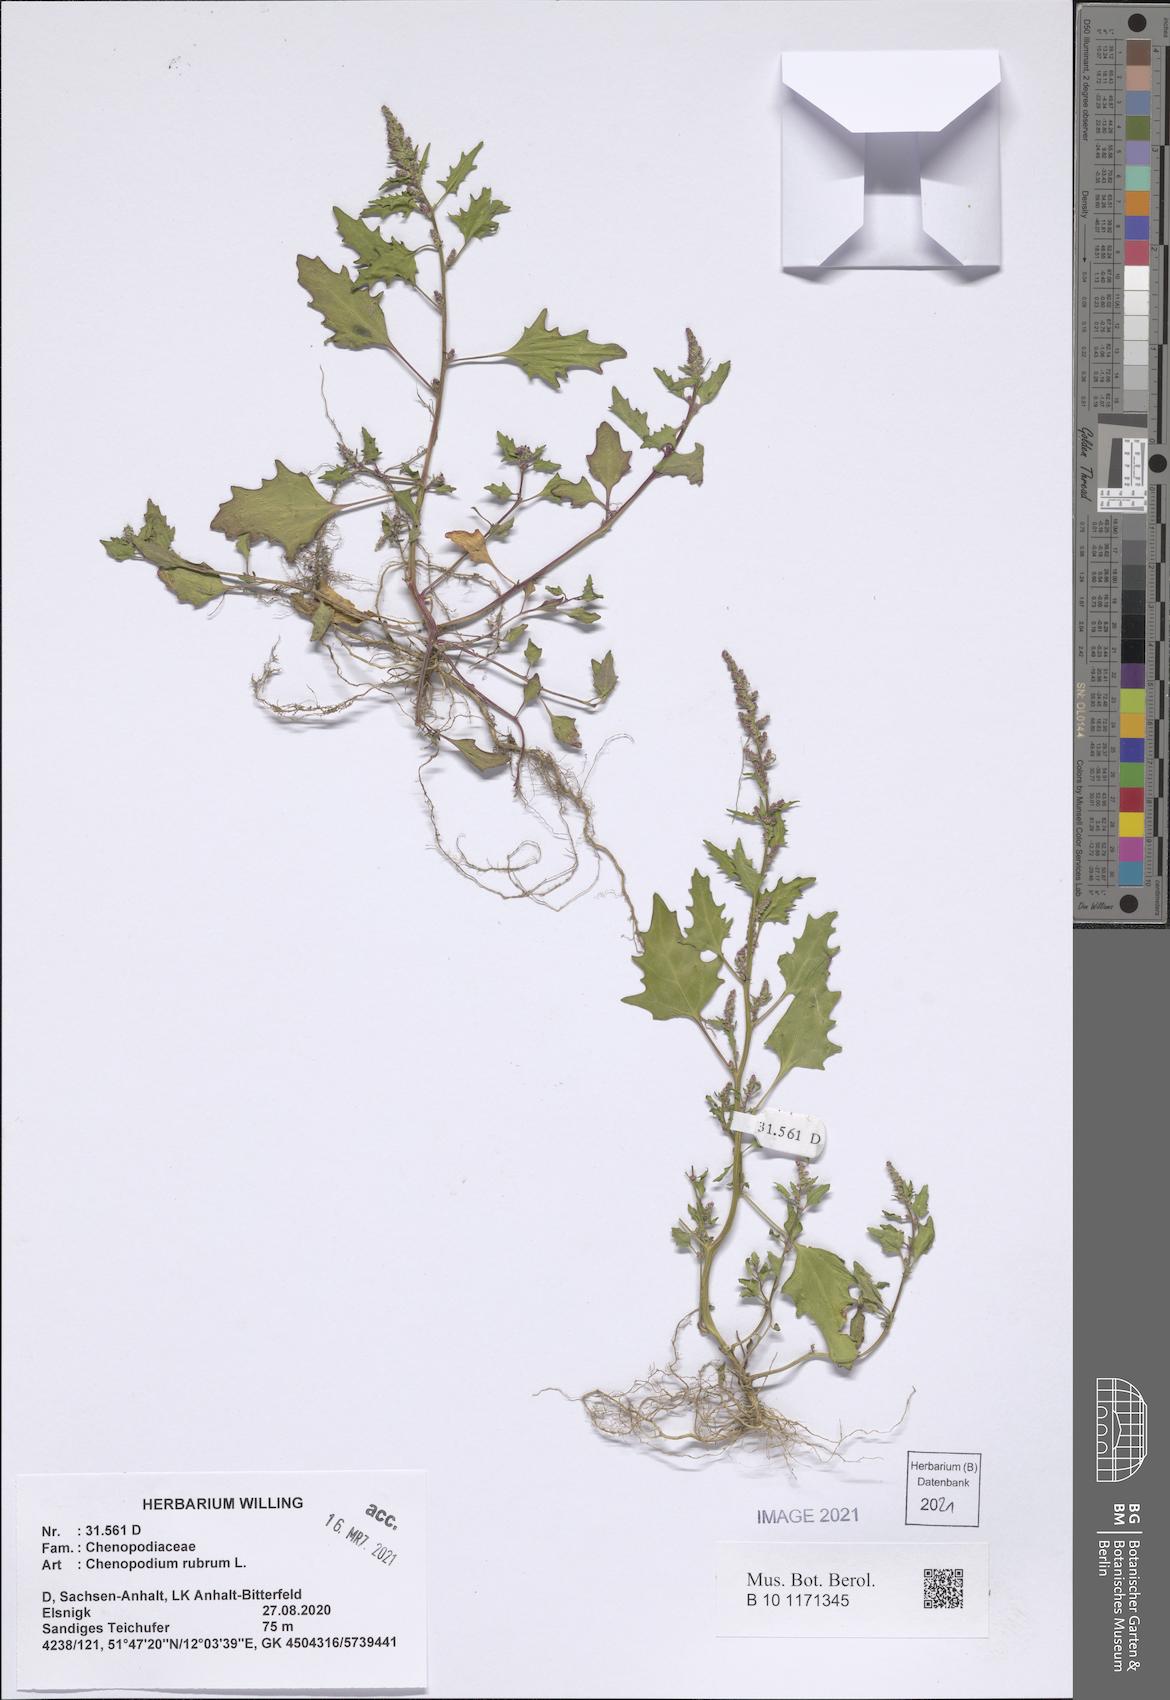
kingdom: Plantae
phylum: Tracheophyta
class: Magnoliopsida
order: Caryophyllales
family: Amaranthaceae
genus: Oxybasis
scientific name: Oxybasis rubra
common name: Red goosefoot
